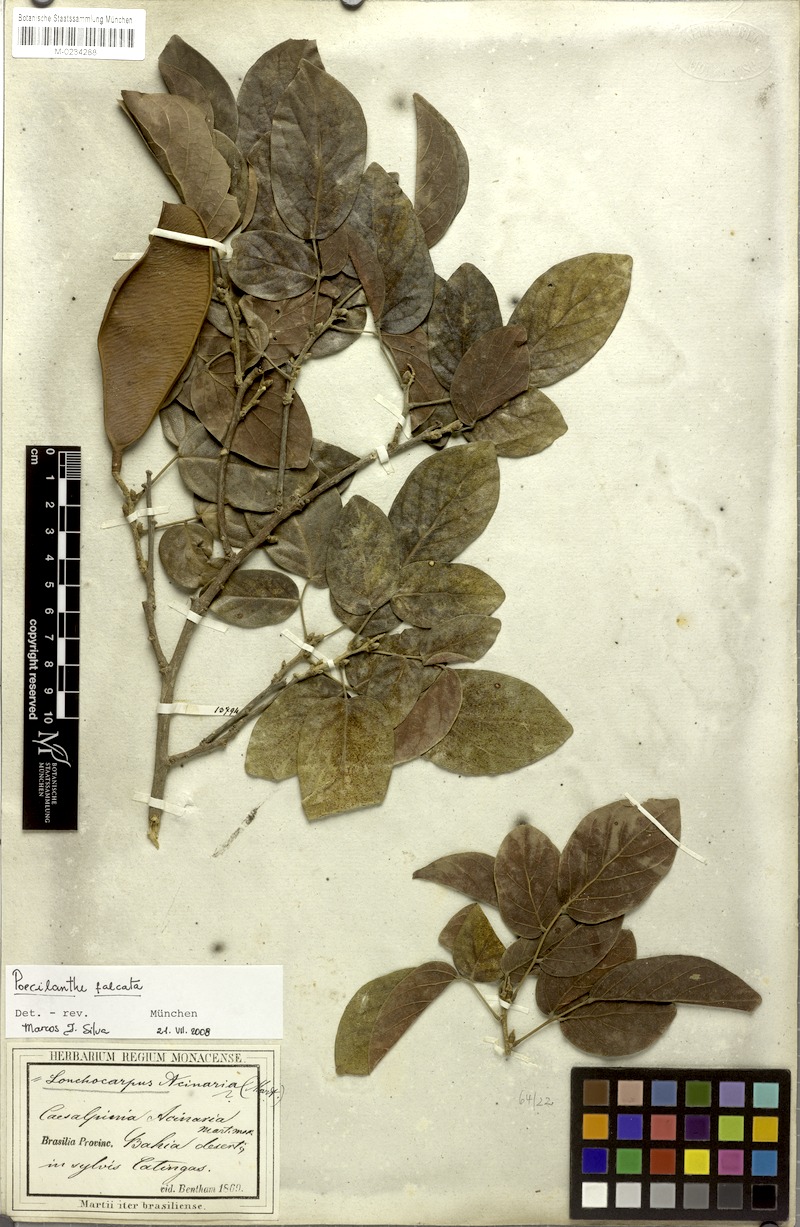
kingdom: Plantae
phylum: Tracheophyta
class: Magnoliopsida
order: Fabales
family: Fabaceae
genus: Poecilanthe
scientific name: Poecilanthe falcata
